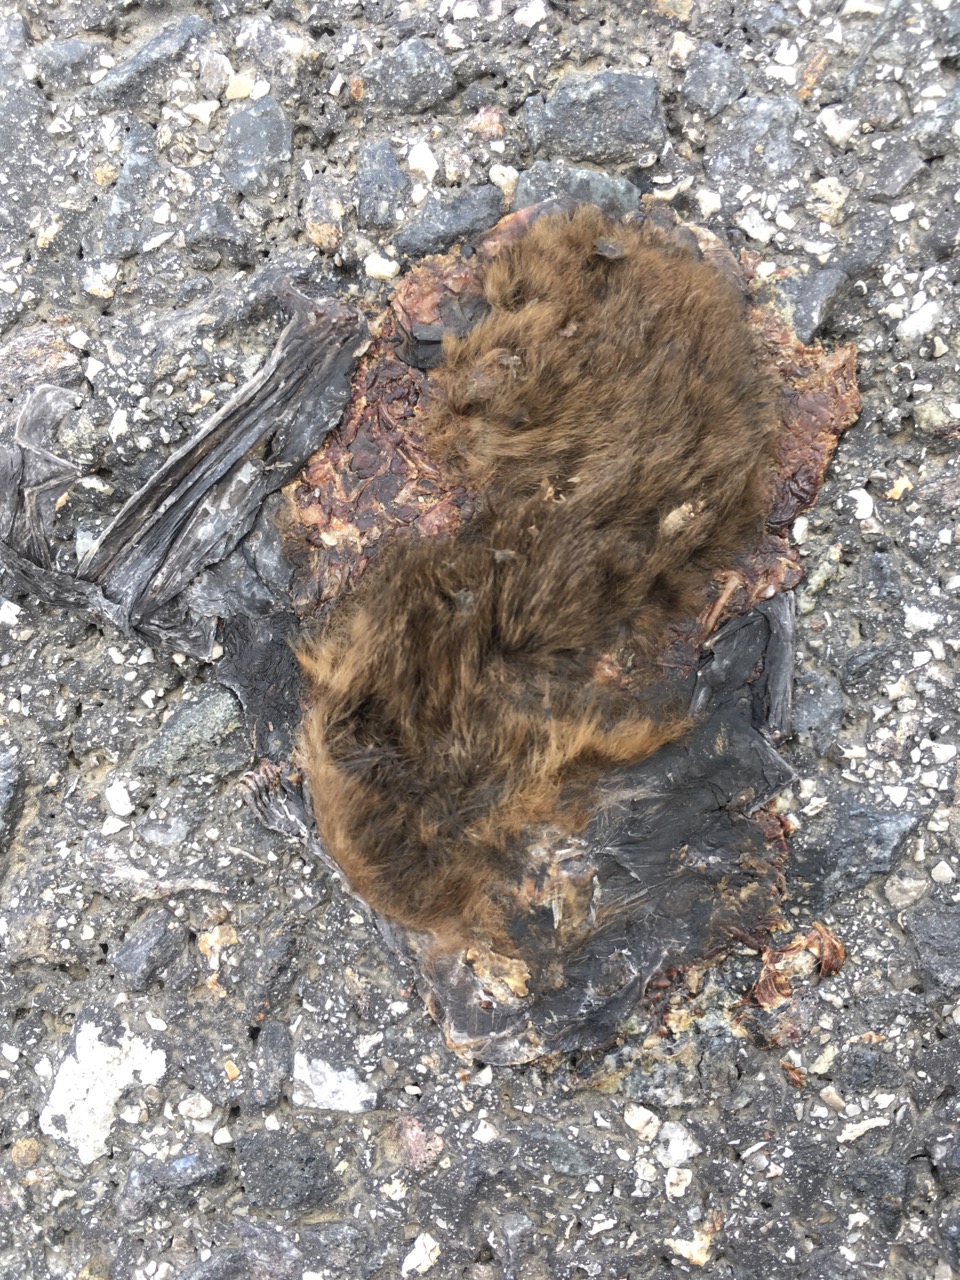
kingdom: Animalia
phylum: Chordata
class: Mammalia
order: Chiroptera
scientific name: Chiroptera
